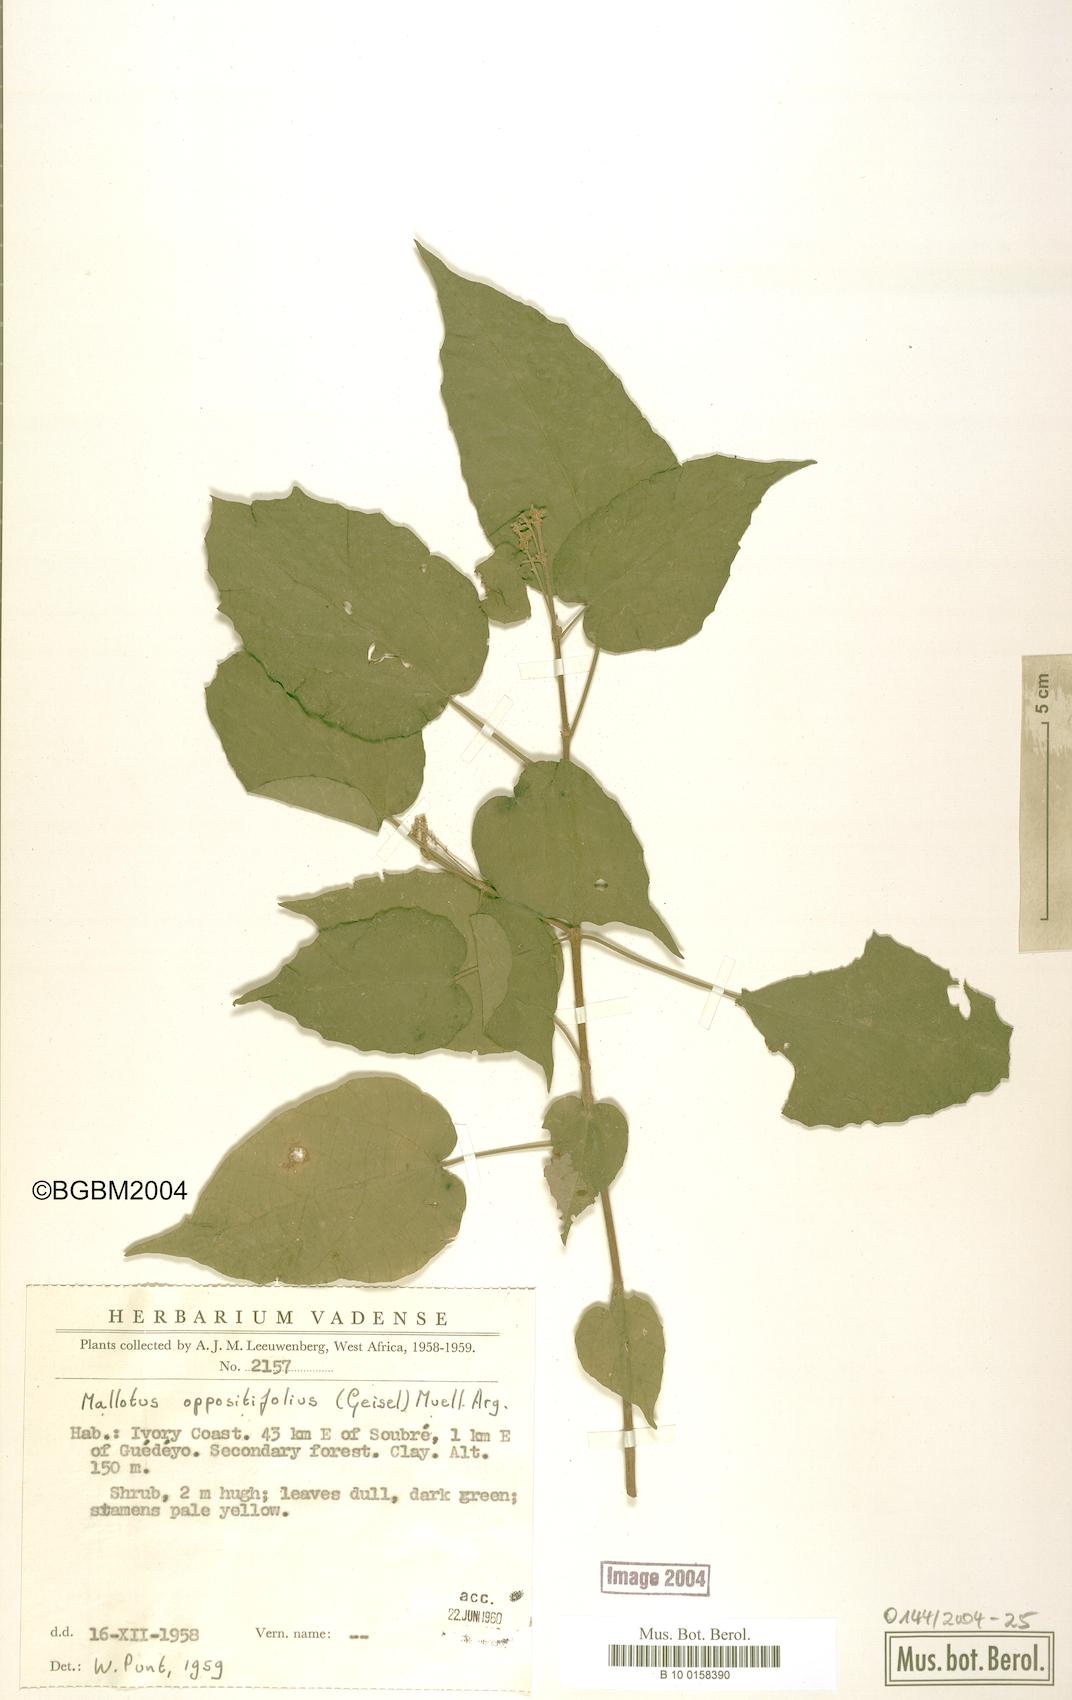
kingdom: Plantae
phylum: Tracheophyta
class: Magnoliopsida
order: Malpighiales
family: Euphorbiaceae
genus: Mallotus
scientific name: Mallotus oppositifolius
